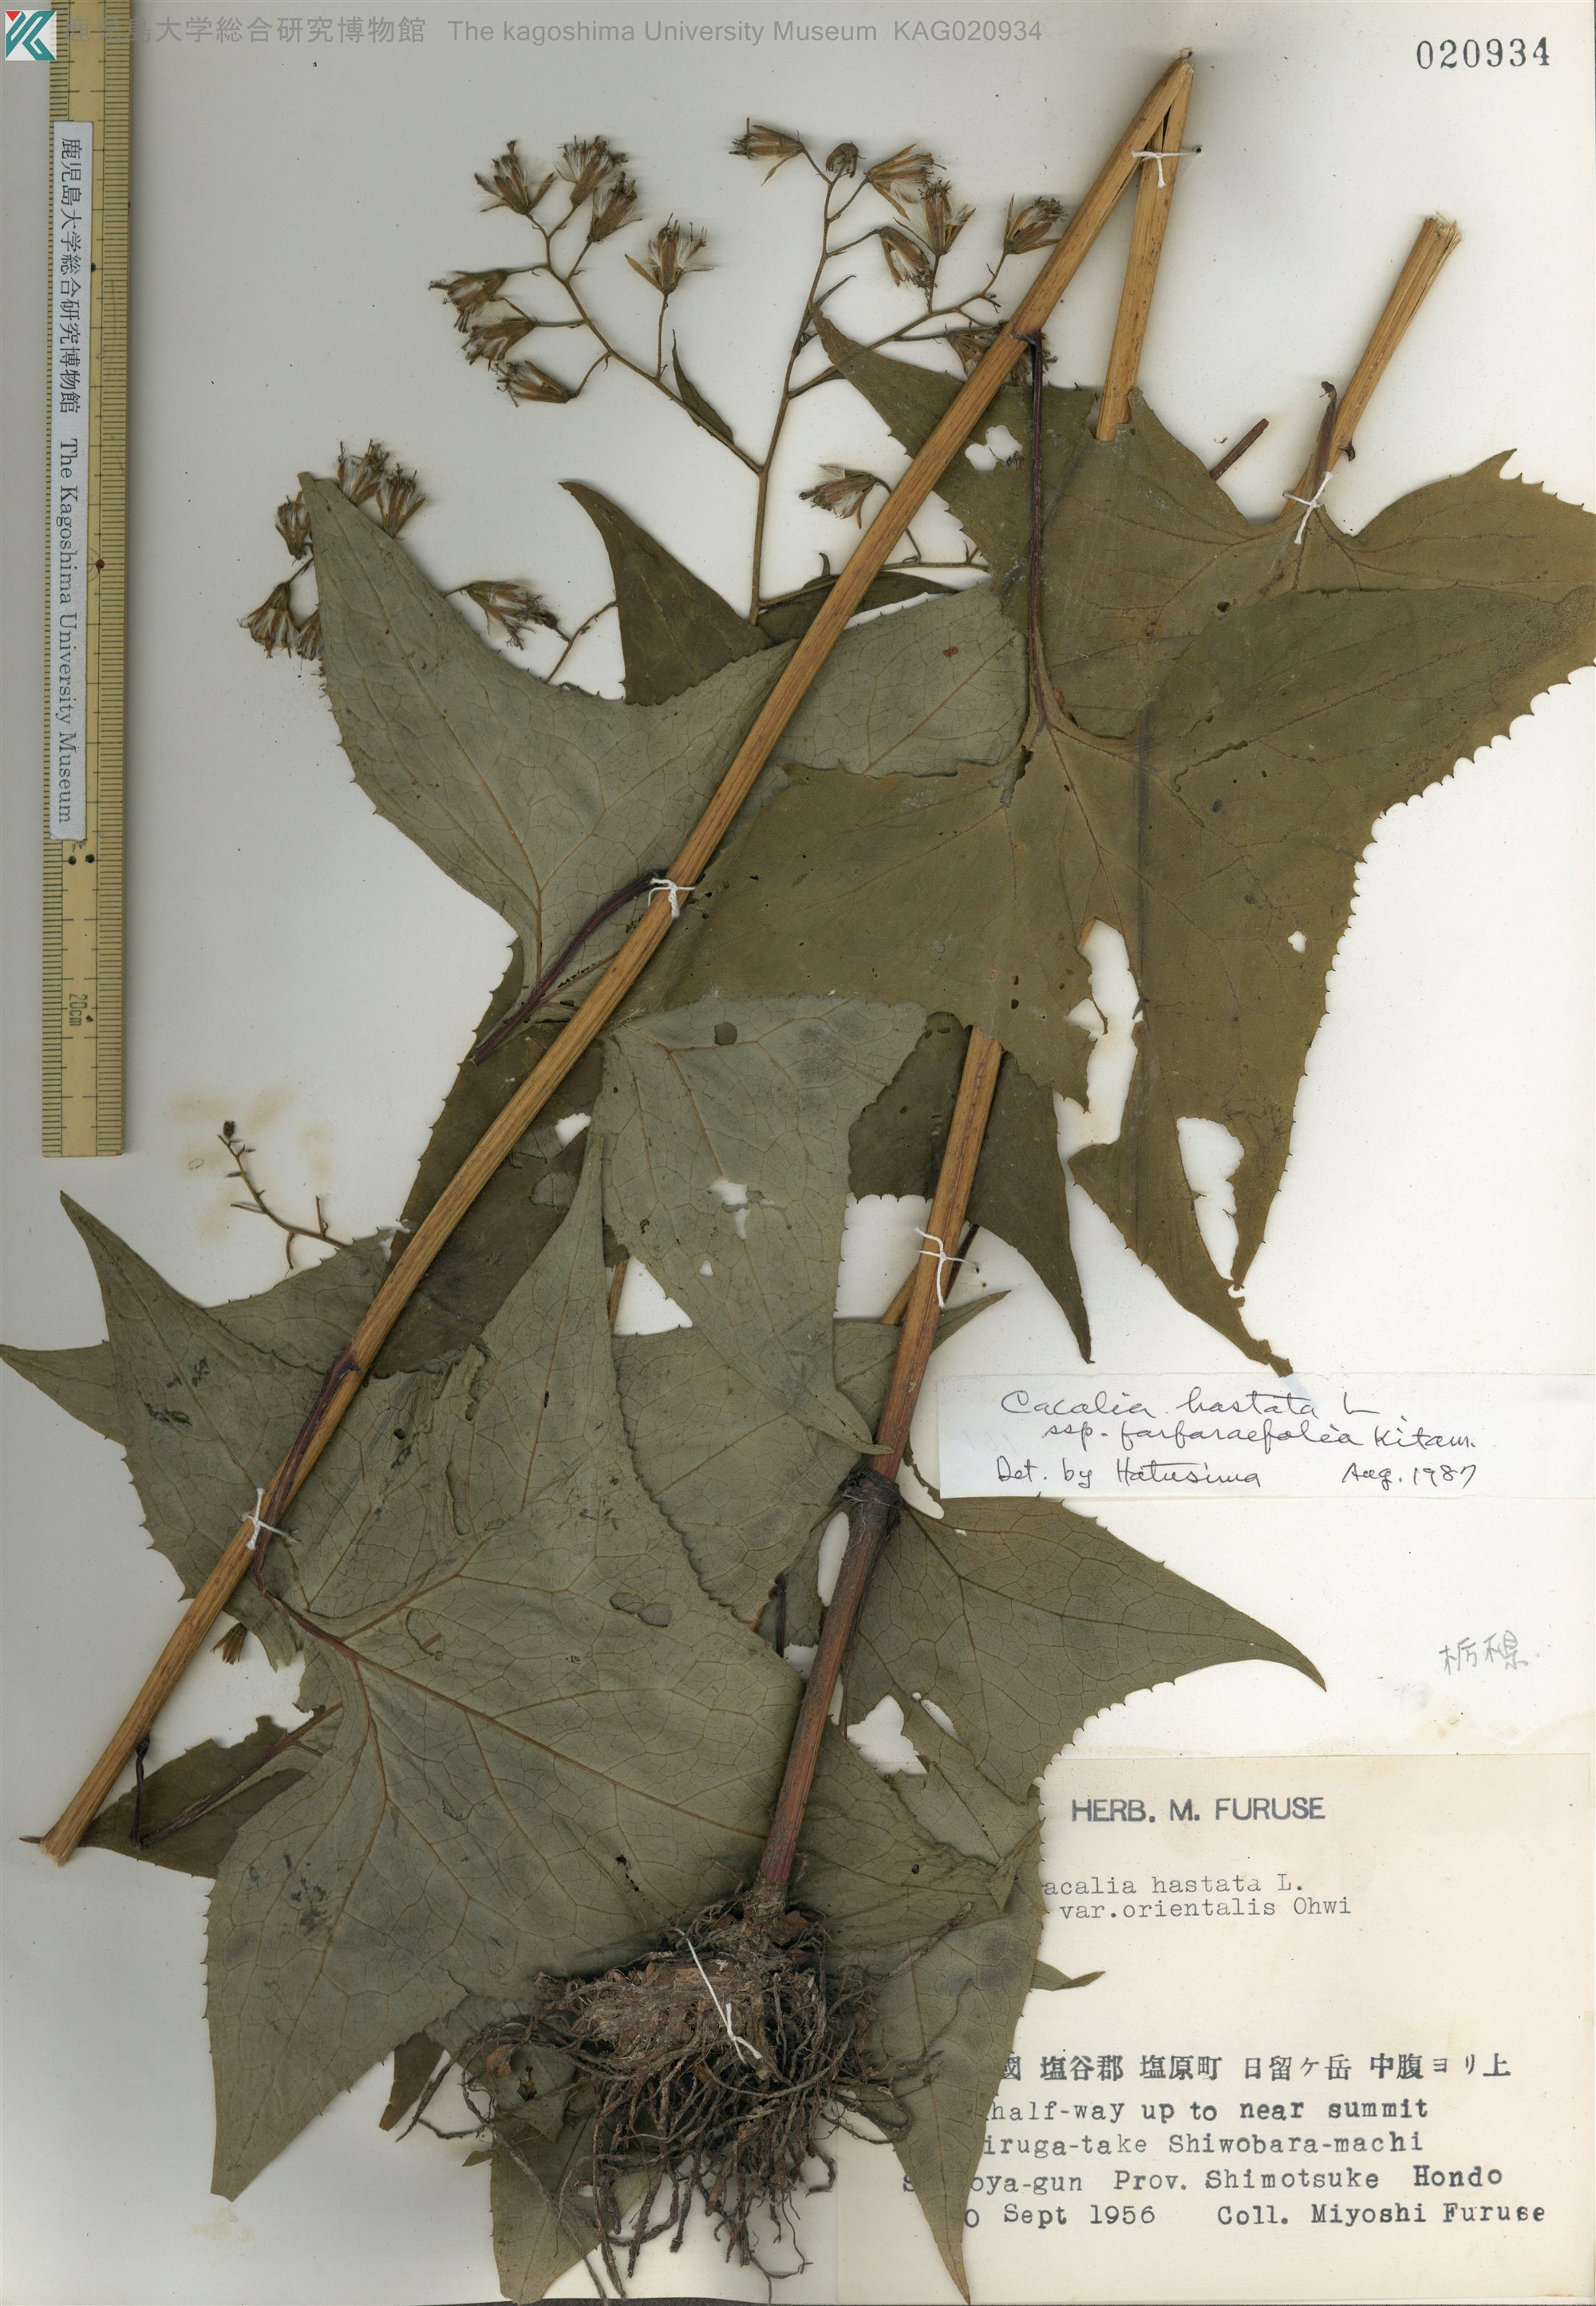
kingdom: Plantae
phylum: Tracheophyta
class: Magnoliopsida
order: Asterales
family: Asteraceae
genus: Parasenecio
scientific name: Parasenecio maximowicziana
